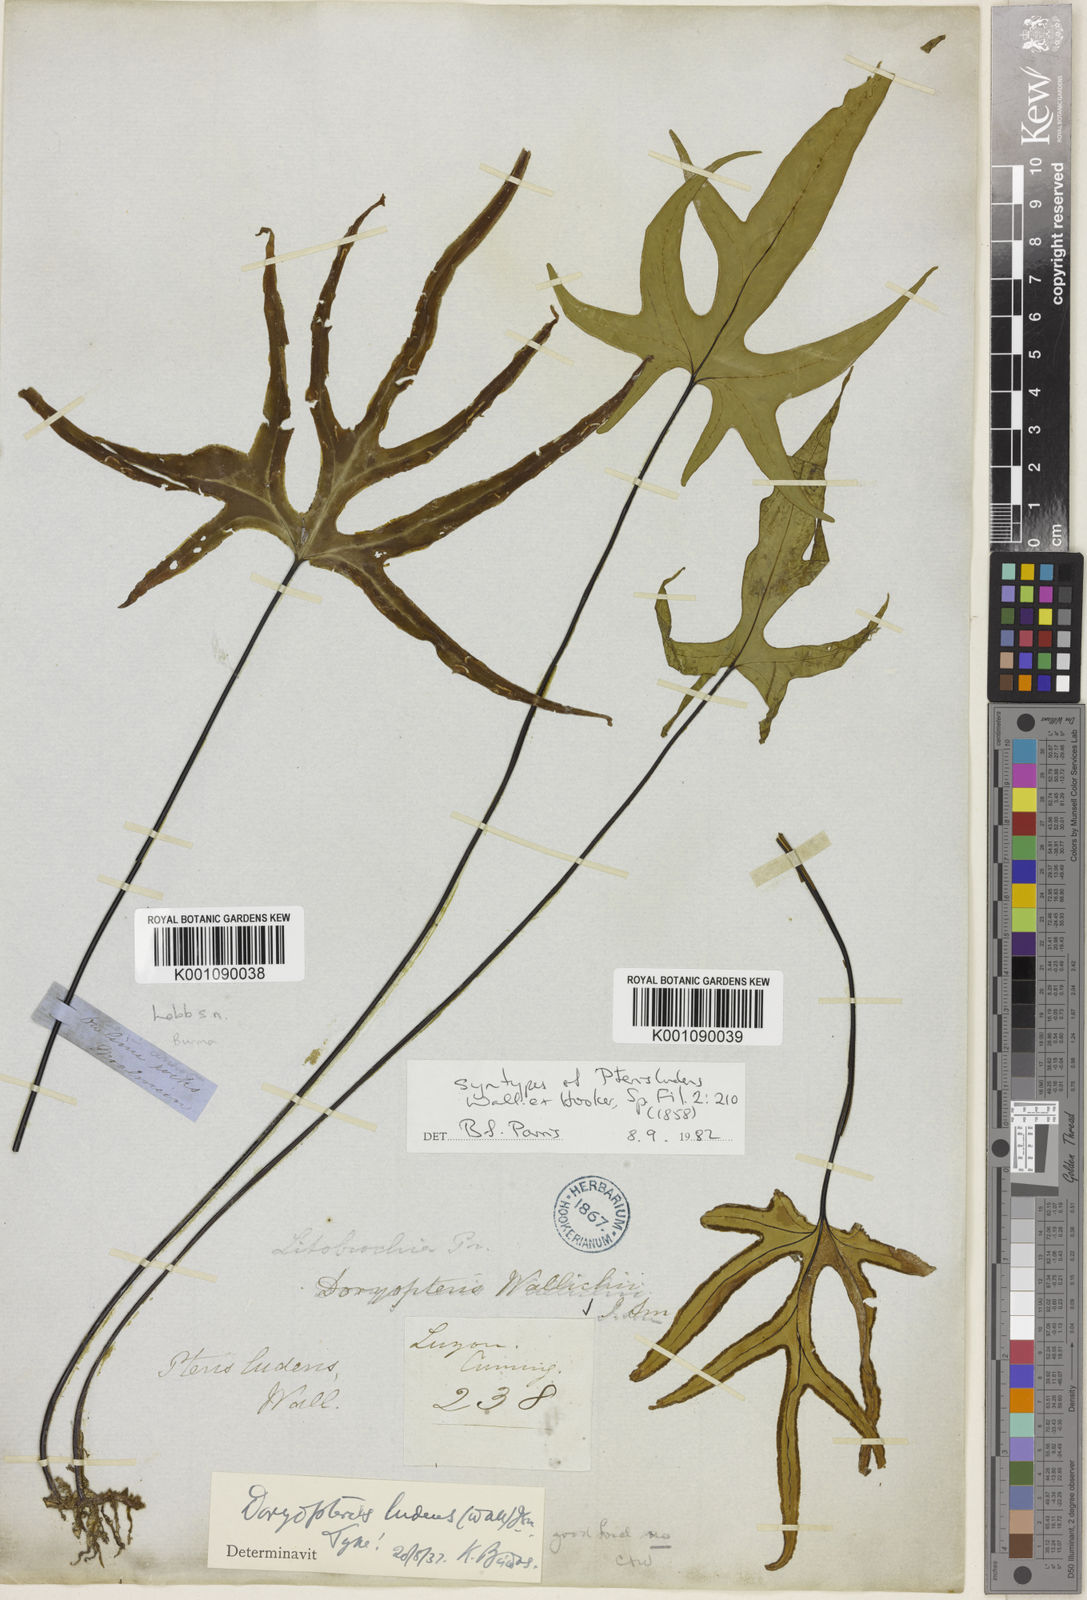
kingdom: Plantae
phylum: Tracheophyta
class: Polypodiopsida
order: Polypodiales
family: Pteridaceae
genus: Calciphilopteris
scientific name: Calciphilopteris ludens
